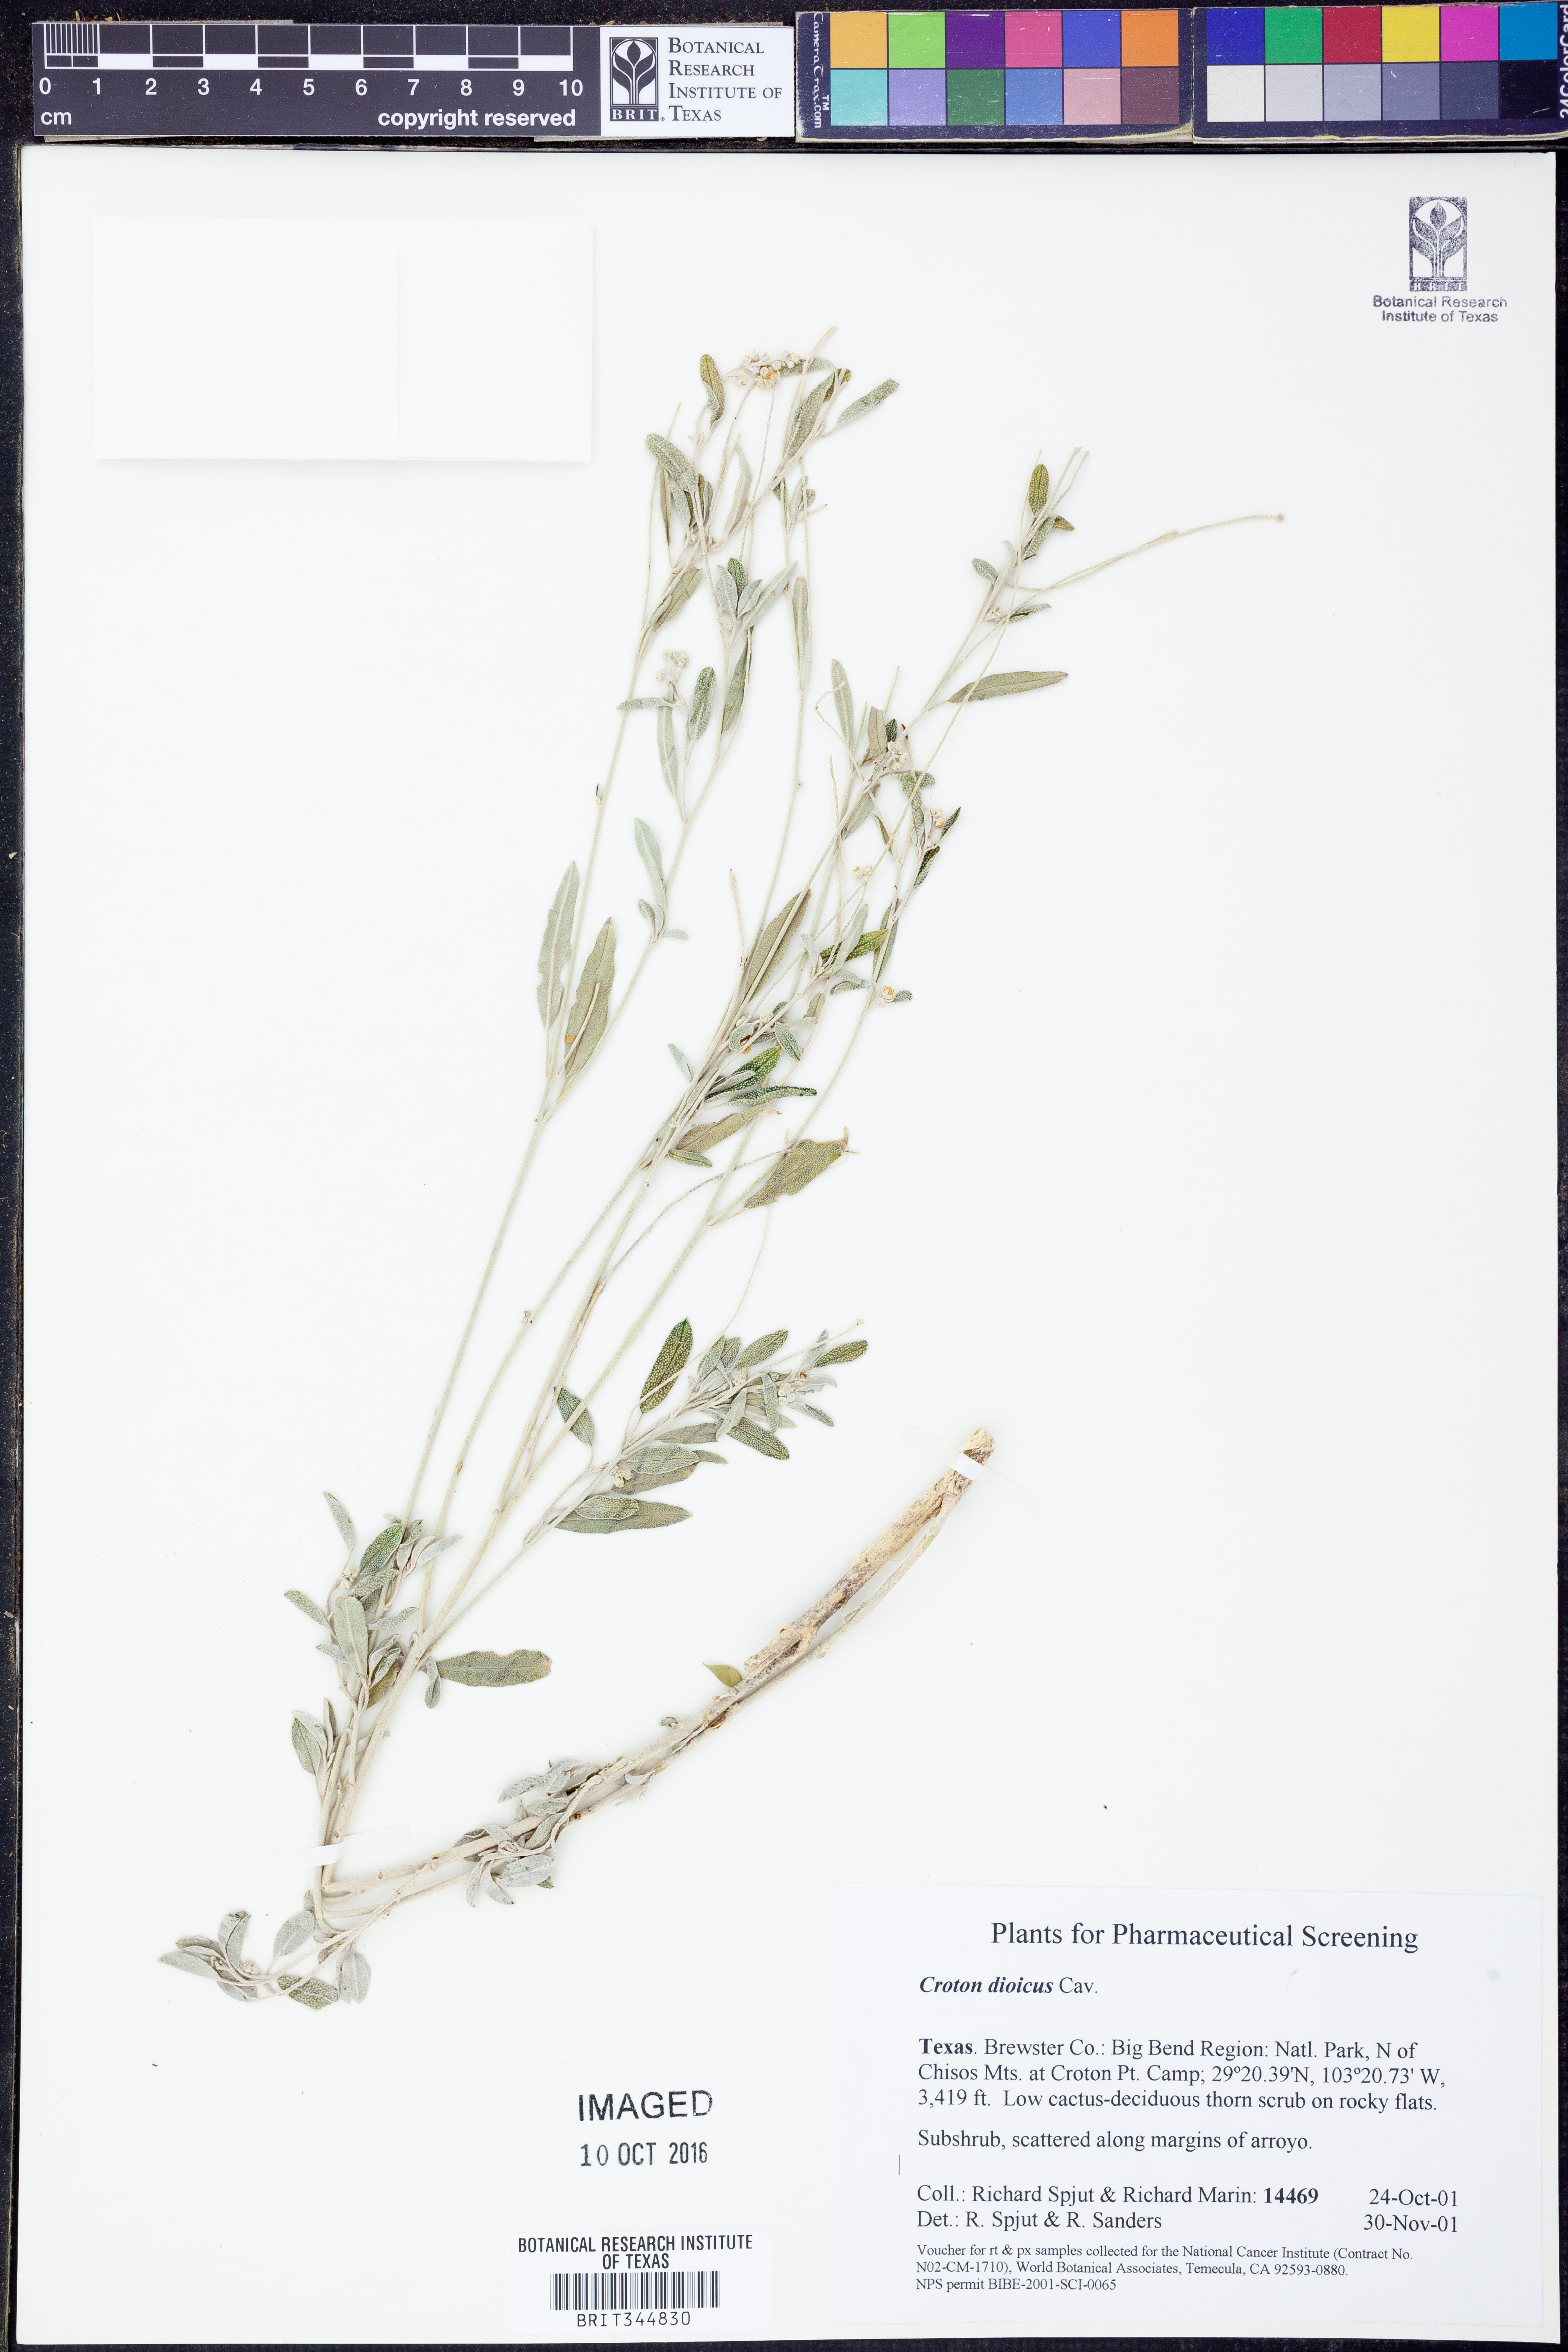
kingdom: Plantae
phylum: Tracheophyta
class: Magnoliopsida
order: Malpighiales
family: Euphorbiaceae
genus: Croton
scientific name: Croton dioicus
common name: Grassland croton
